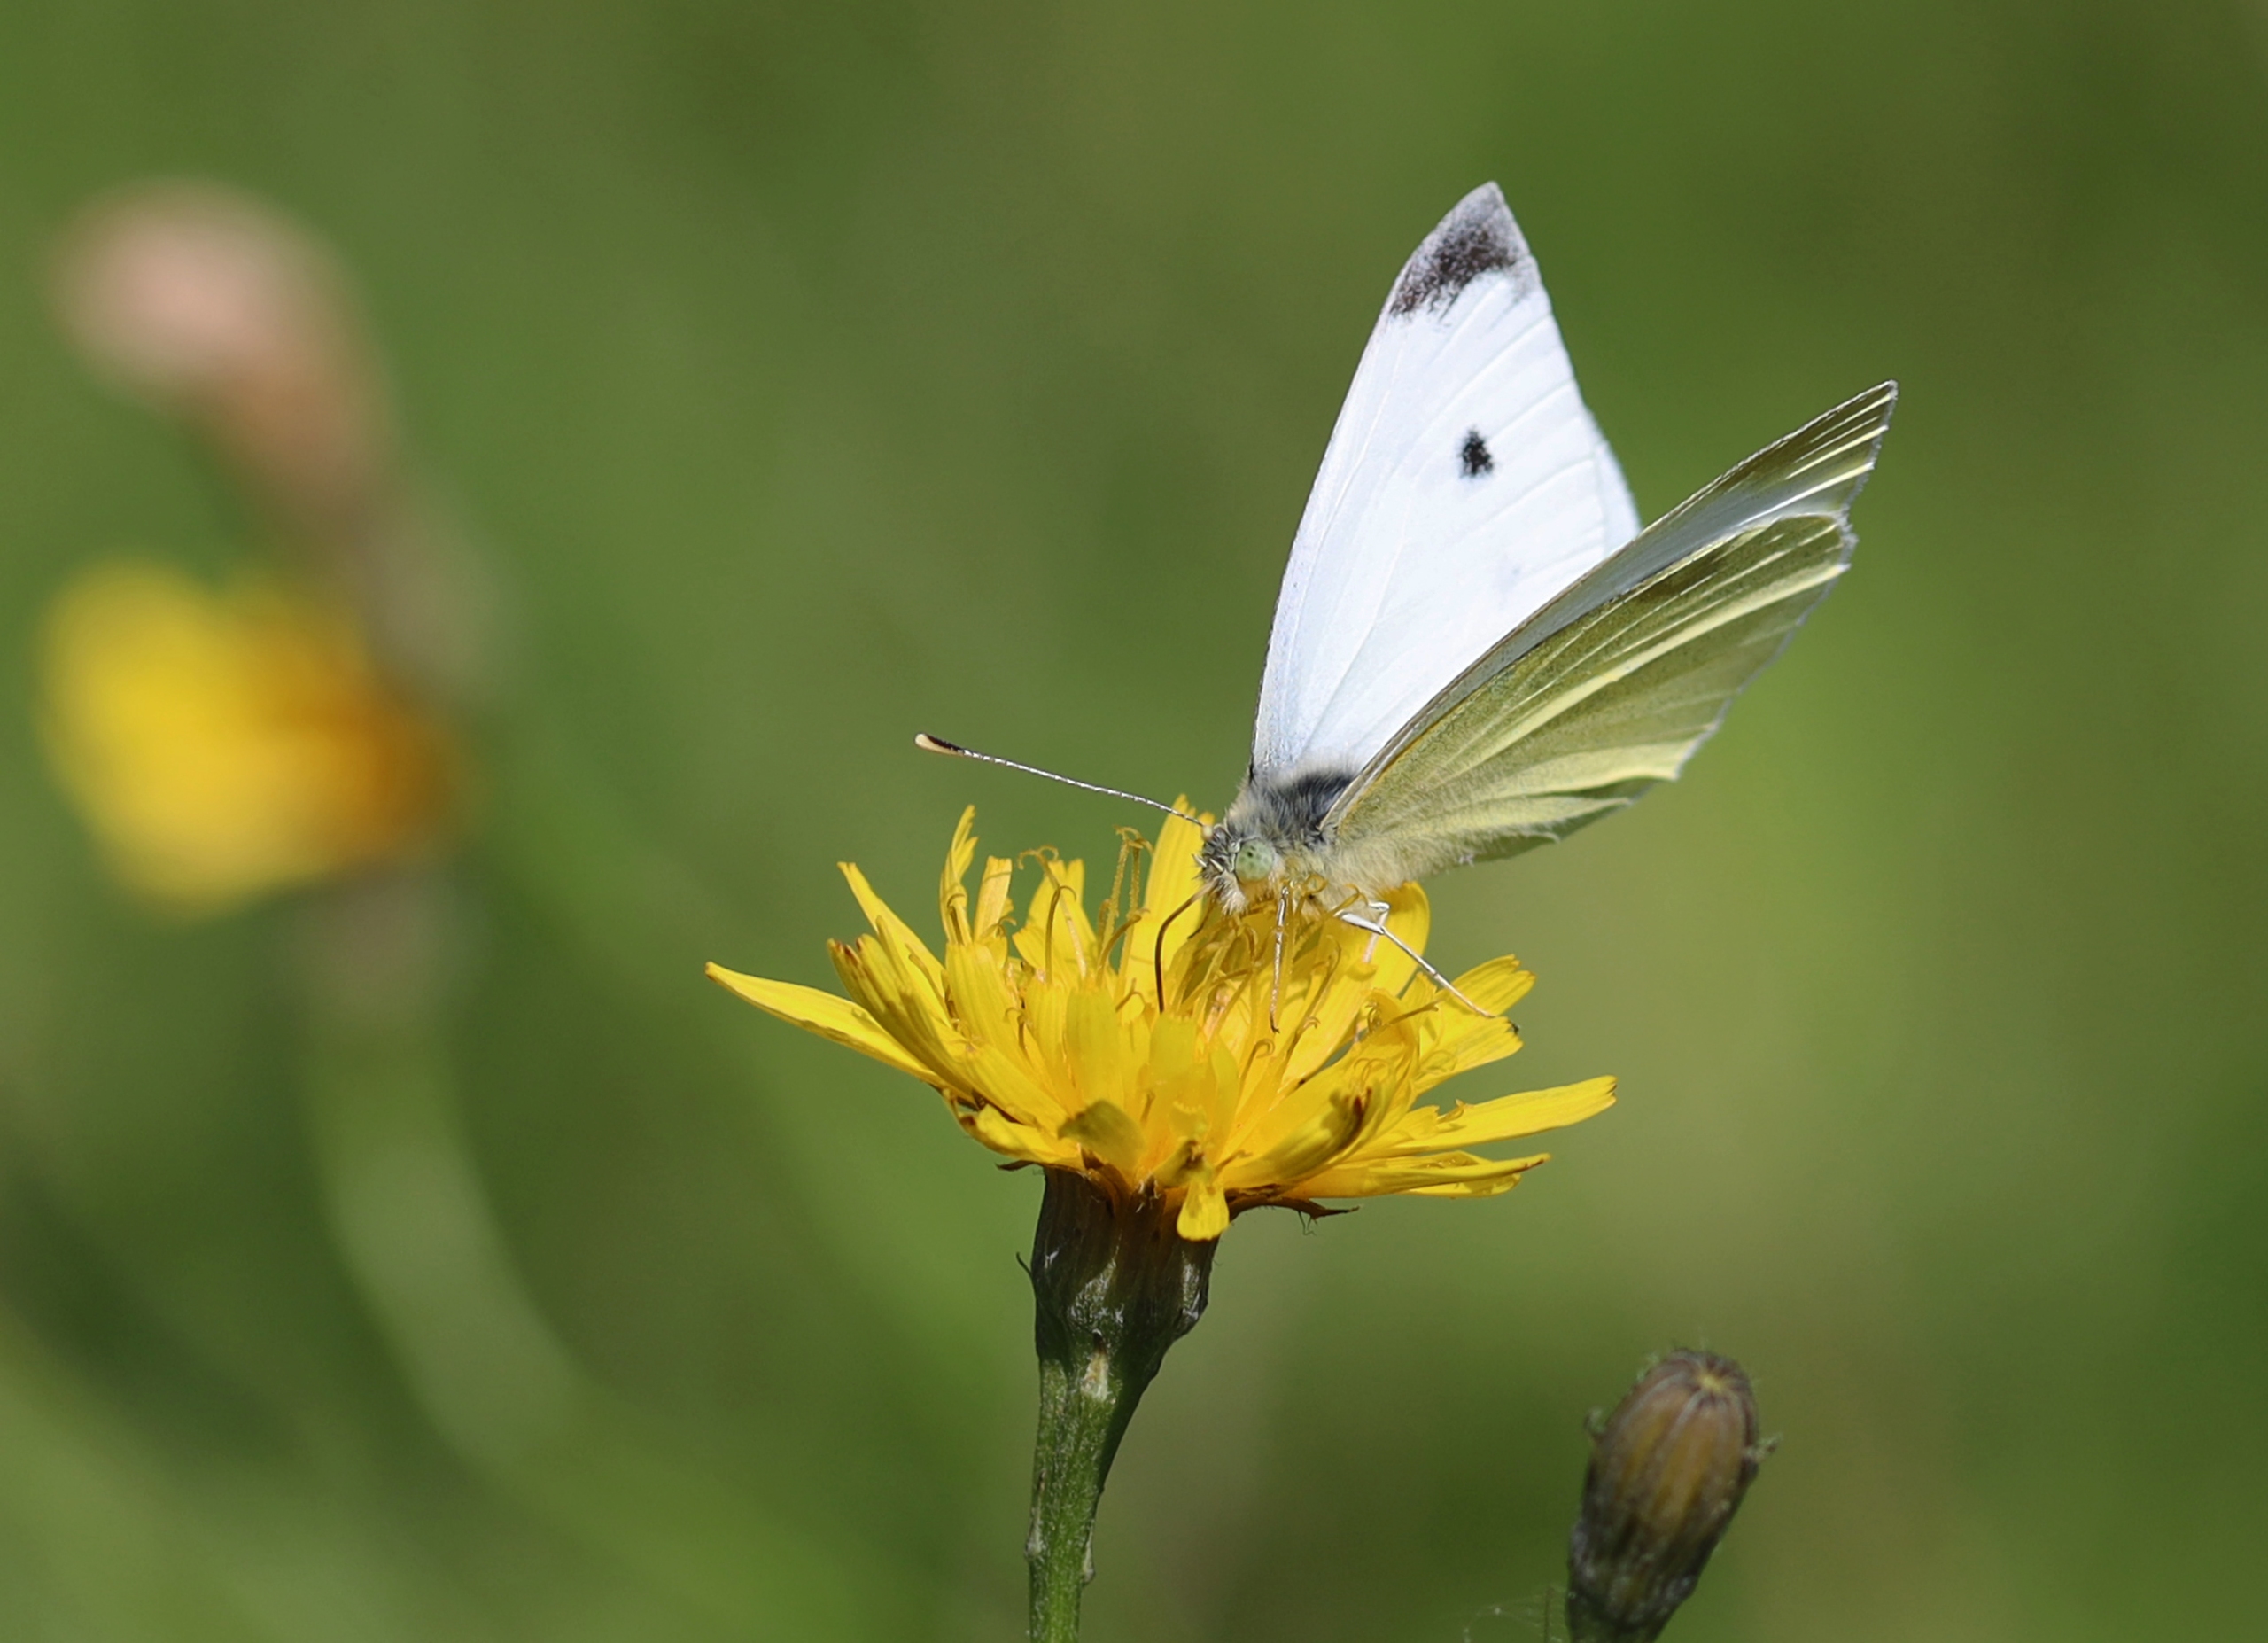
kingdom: Animalia
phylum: Arthropoda
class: Insecta
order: Lepidoptera
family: Pieridae
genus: Pieris
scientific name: Pieris rapae
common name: Lille kålsommerfugl
